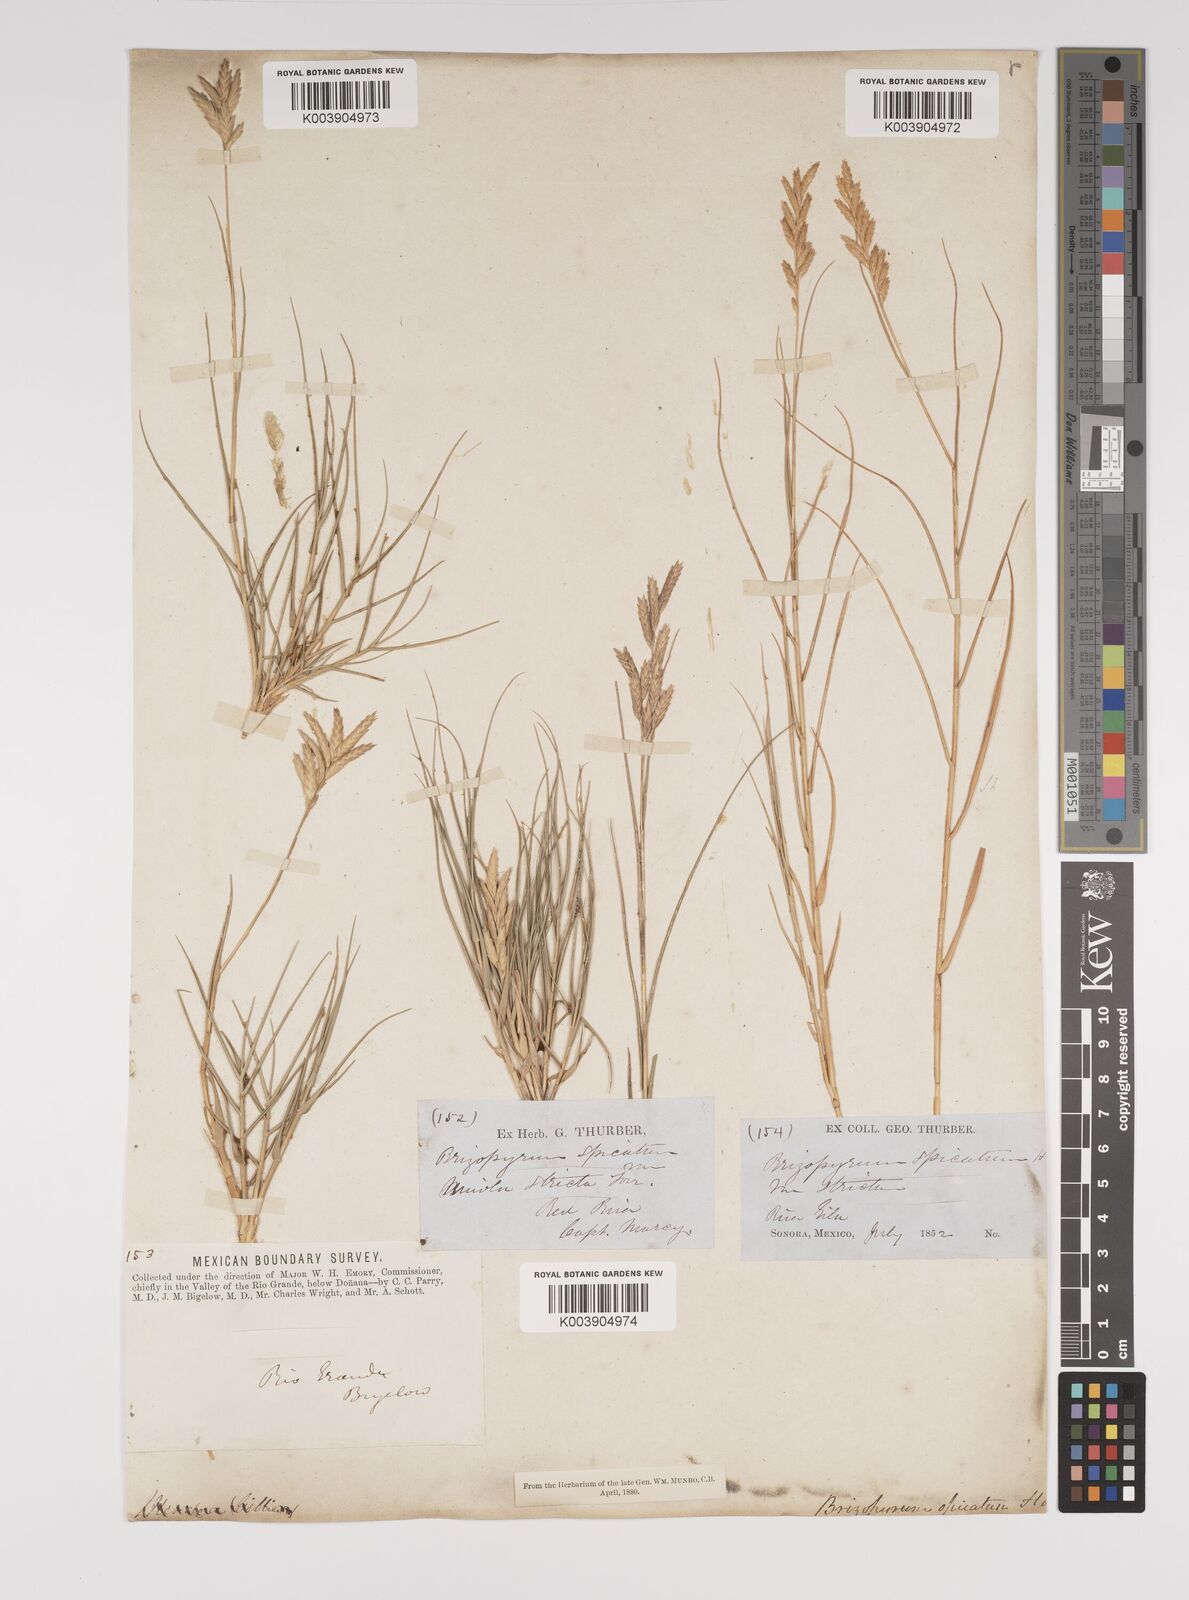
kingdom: Plantae
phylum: Tracheophyta
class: Liliopsida
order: Poales
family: Poaceae
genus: Distichlis
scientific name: Distichlis palmeri
